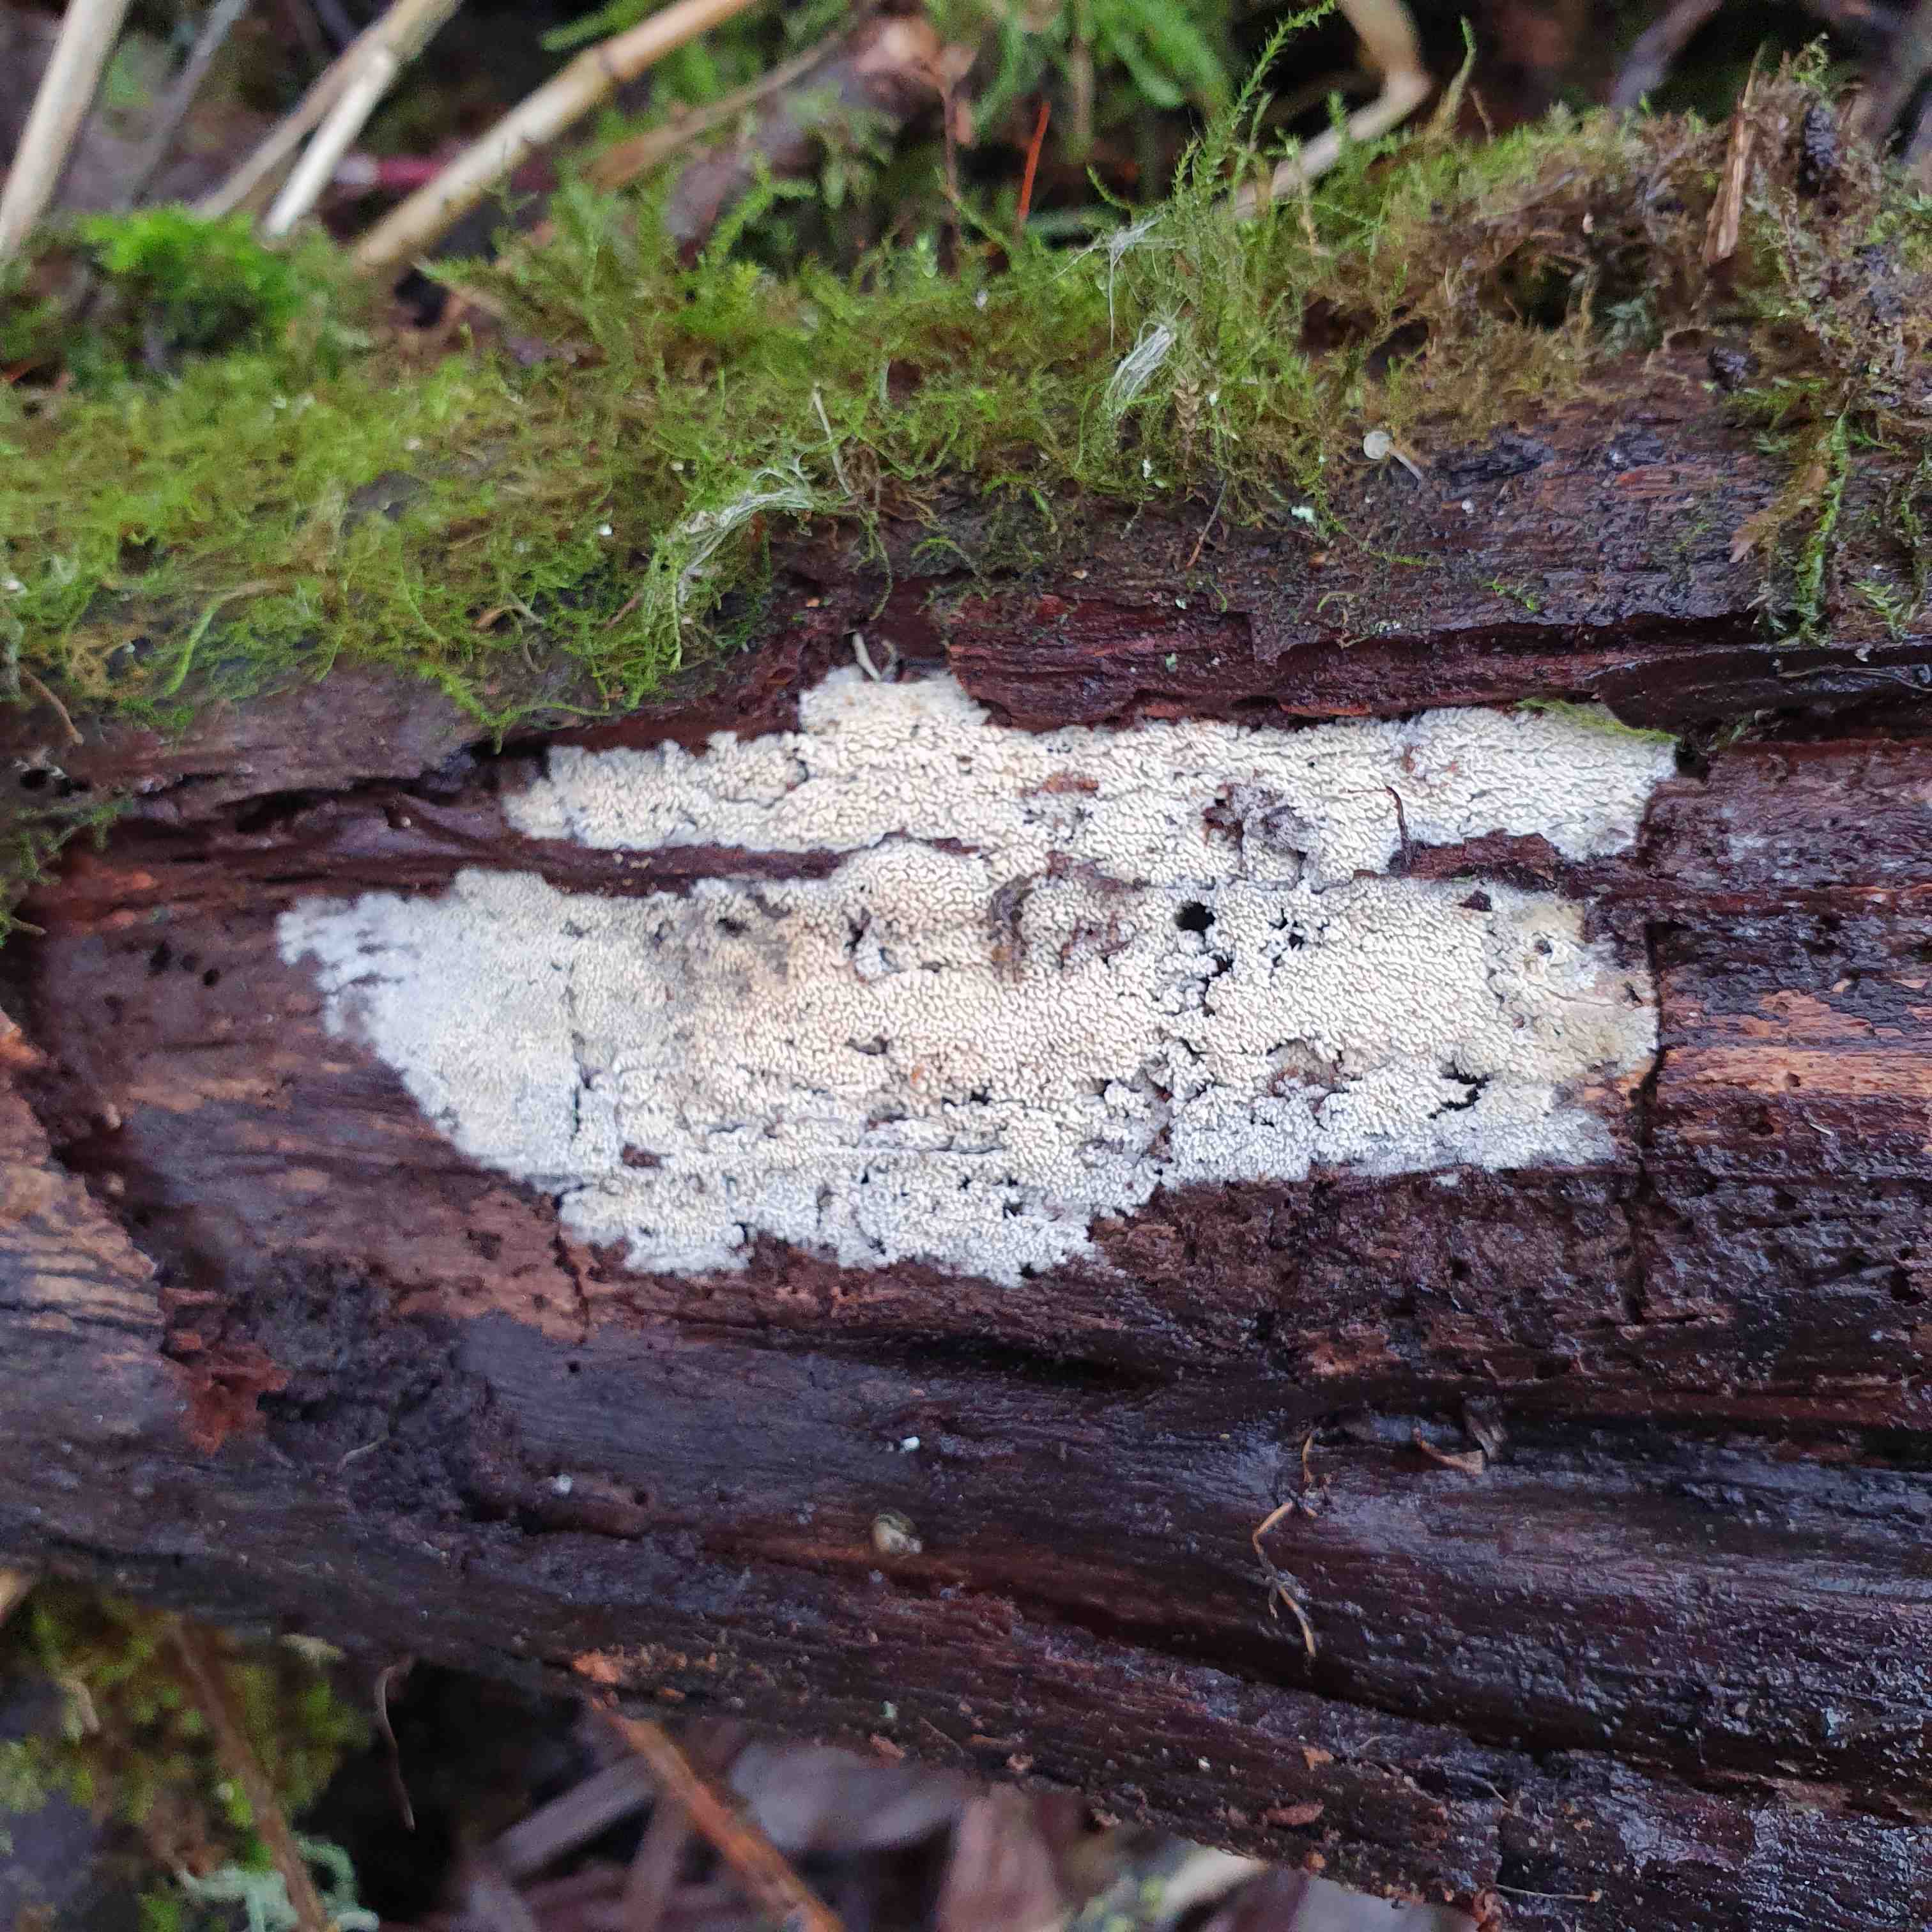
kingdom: Fungi
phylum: Basidiomycota
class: Agaricomycetes
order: Hymenochaetales
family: Hyphodontiaceae
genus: Hyphodontia
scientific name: Hyphodontia arguta
